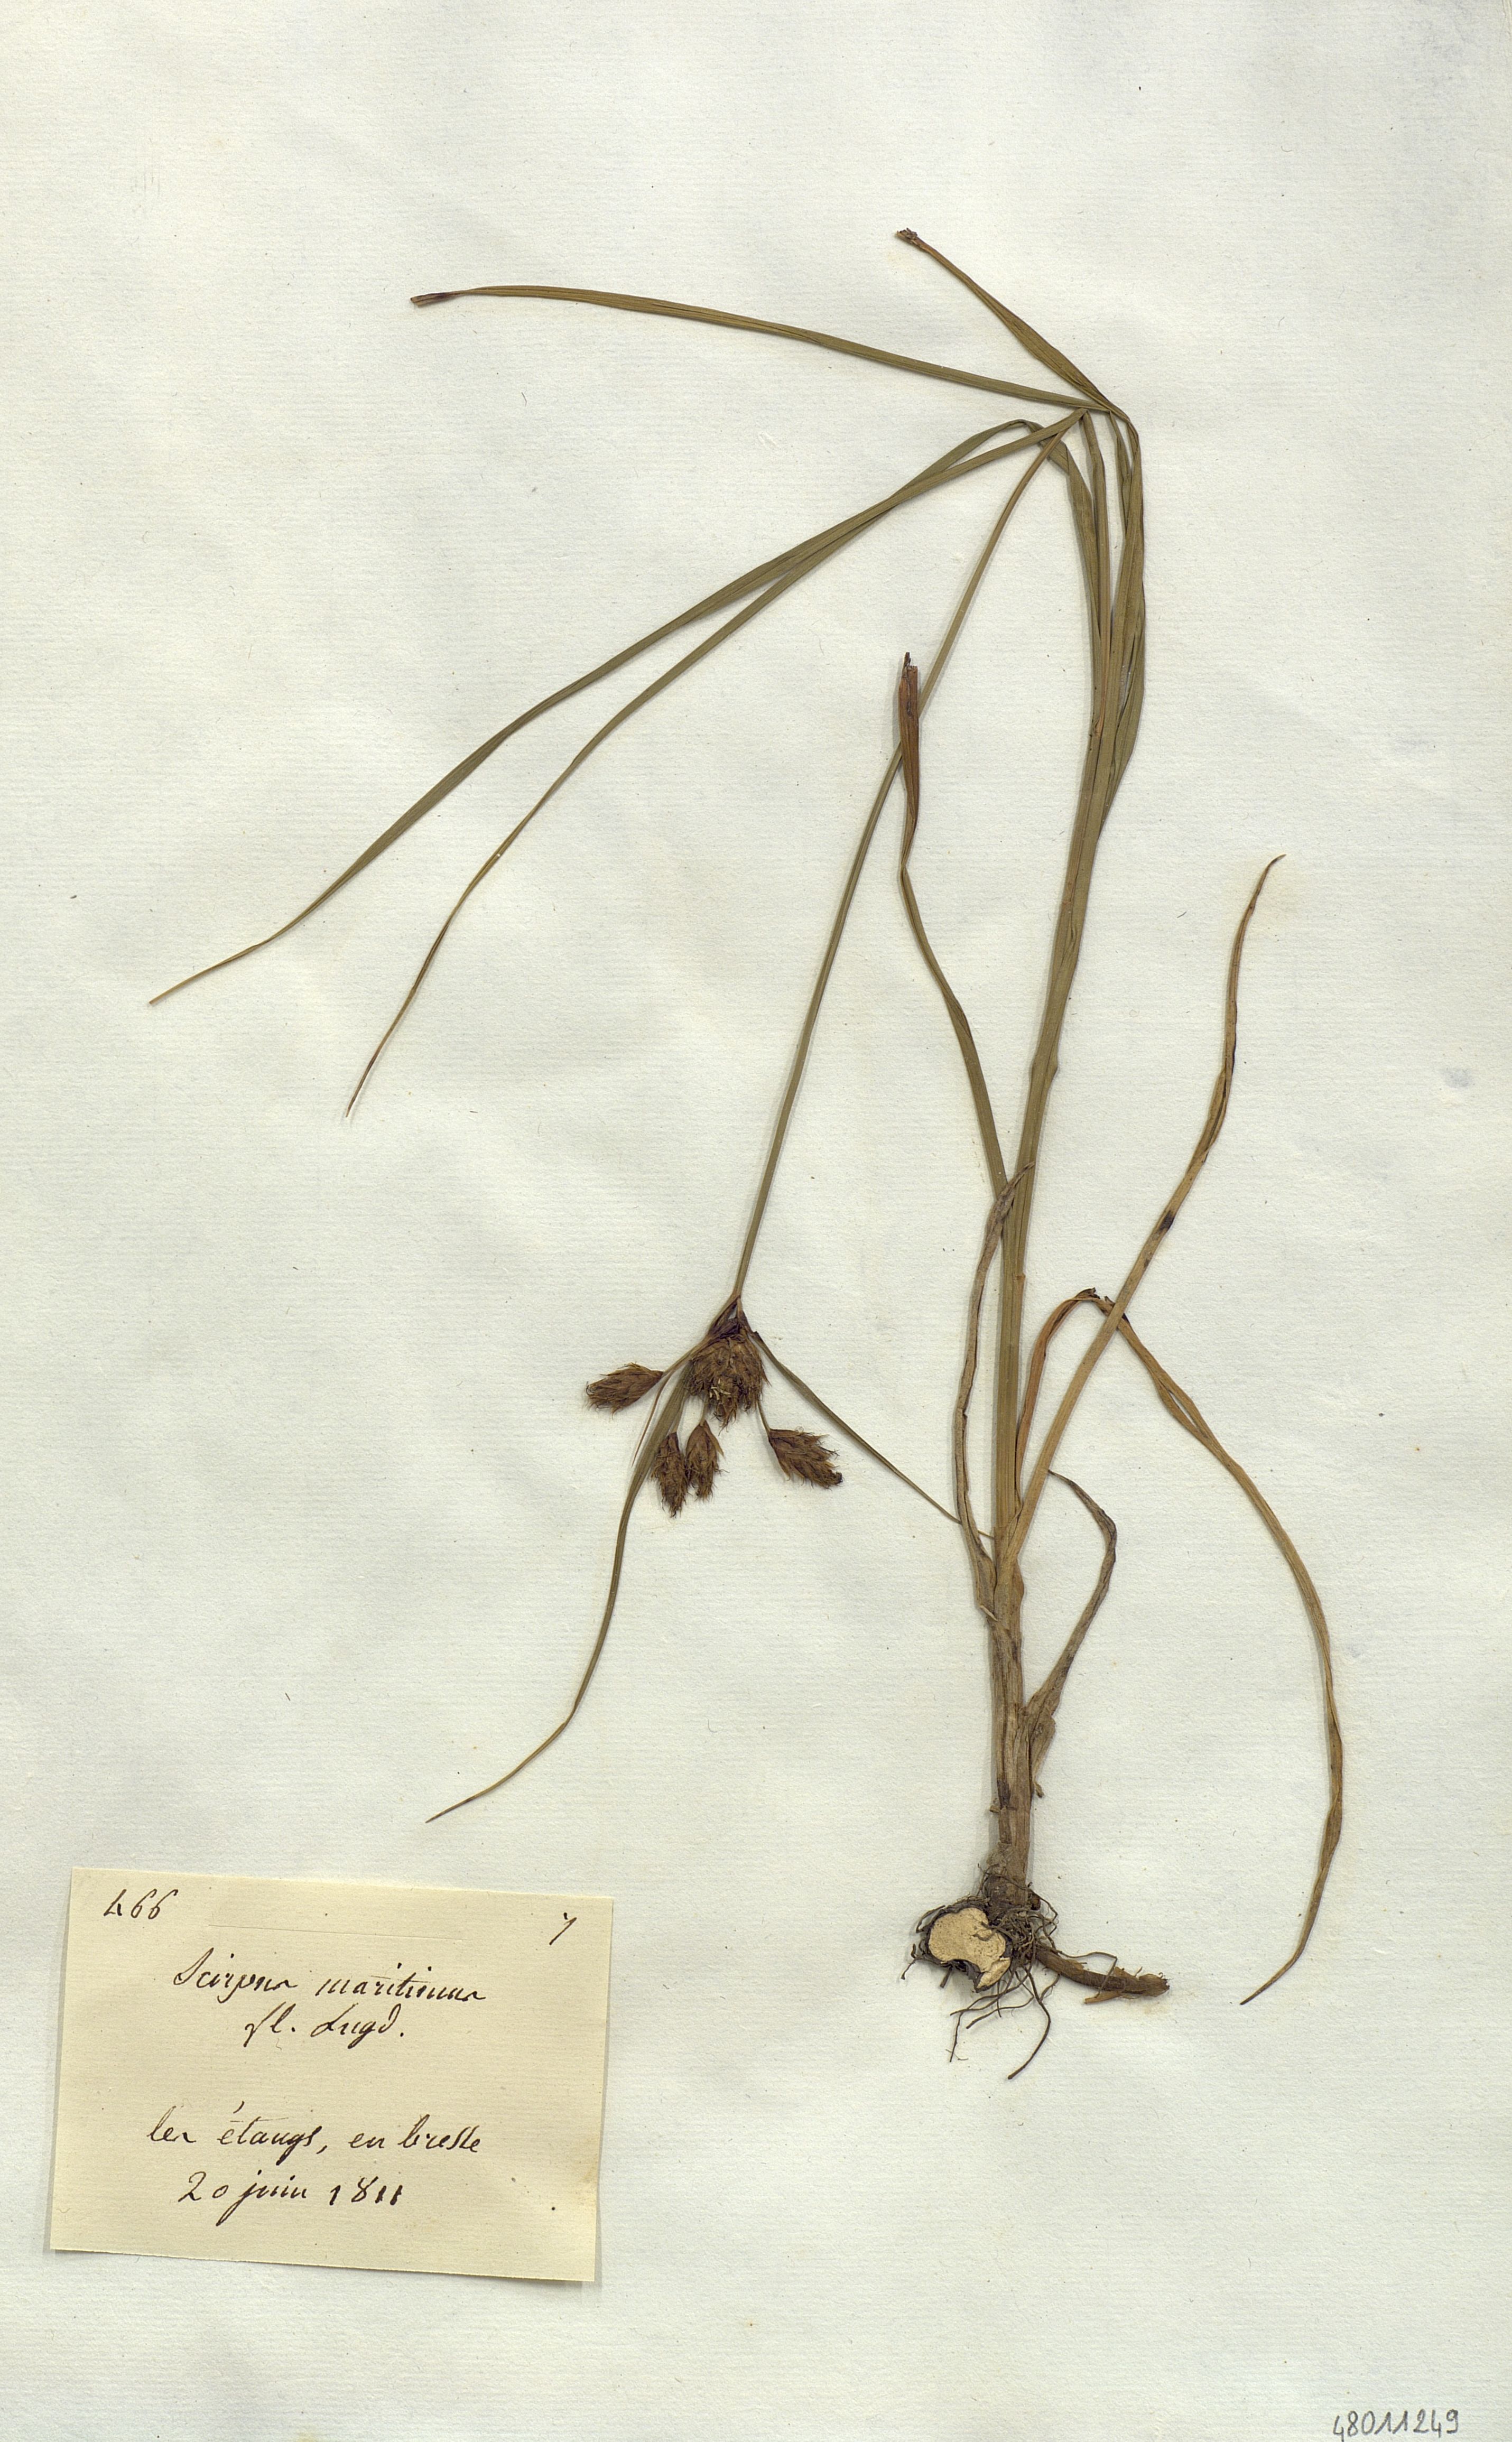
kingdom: Plantae
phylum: Tracheophyta
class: Liliopsida
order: Poales
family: Cyperaceae
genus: Bolboschoenus
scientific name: Bolboschoenus maritimus
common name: Sea club-rush
